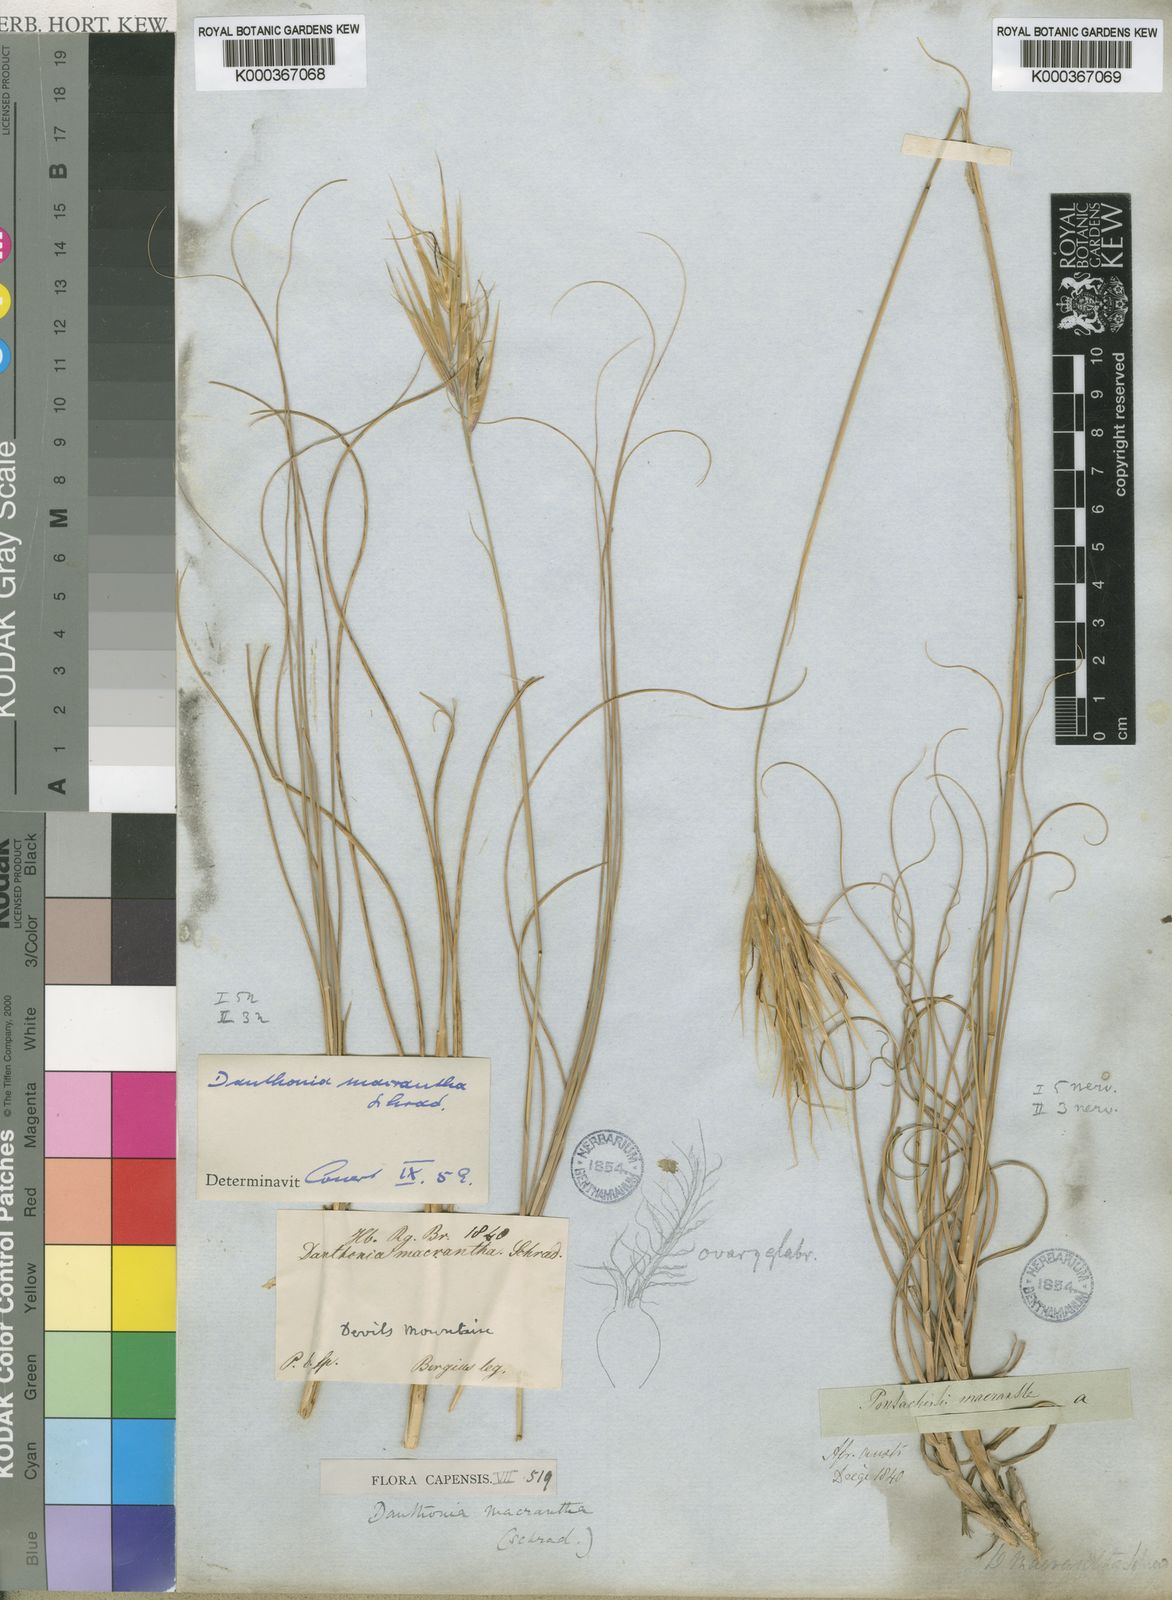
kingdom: Plantae
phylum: Tracheophyta
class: Liliopsida
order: Poales
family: Poaceae
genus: Pseudopentameris
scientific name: Pseudopentameris macrantha
